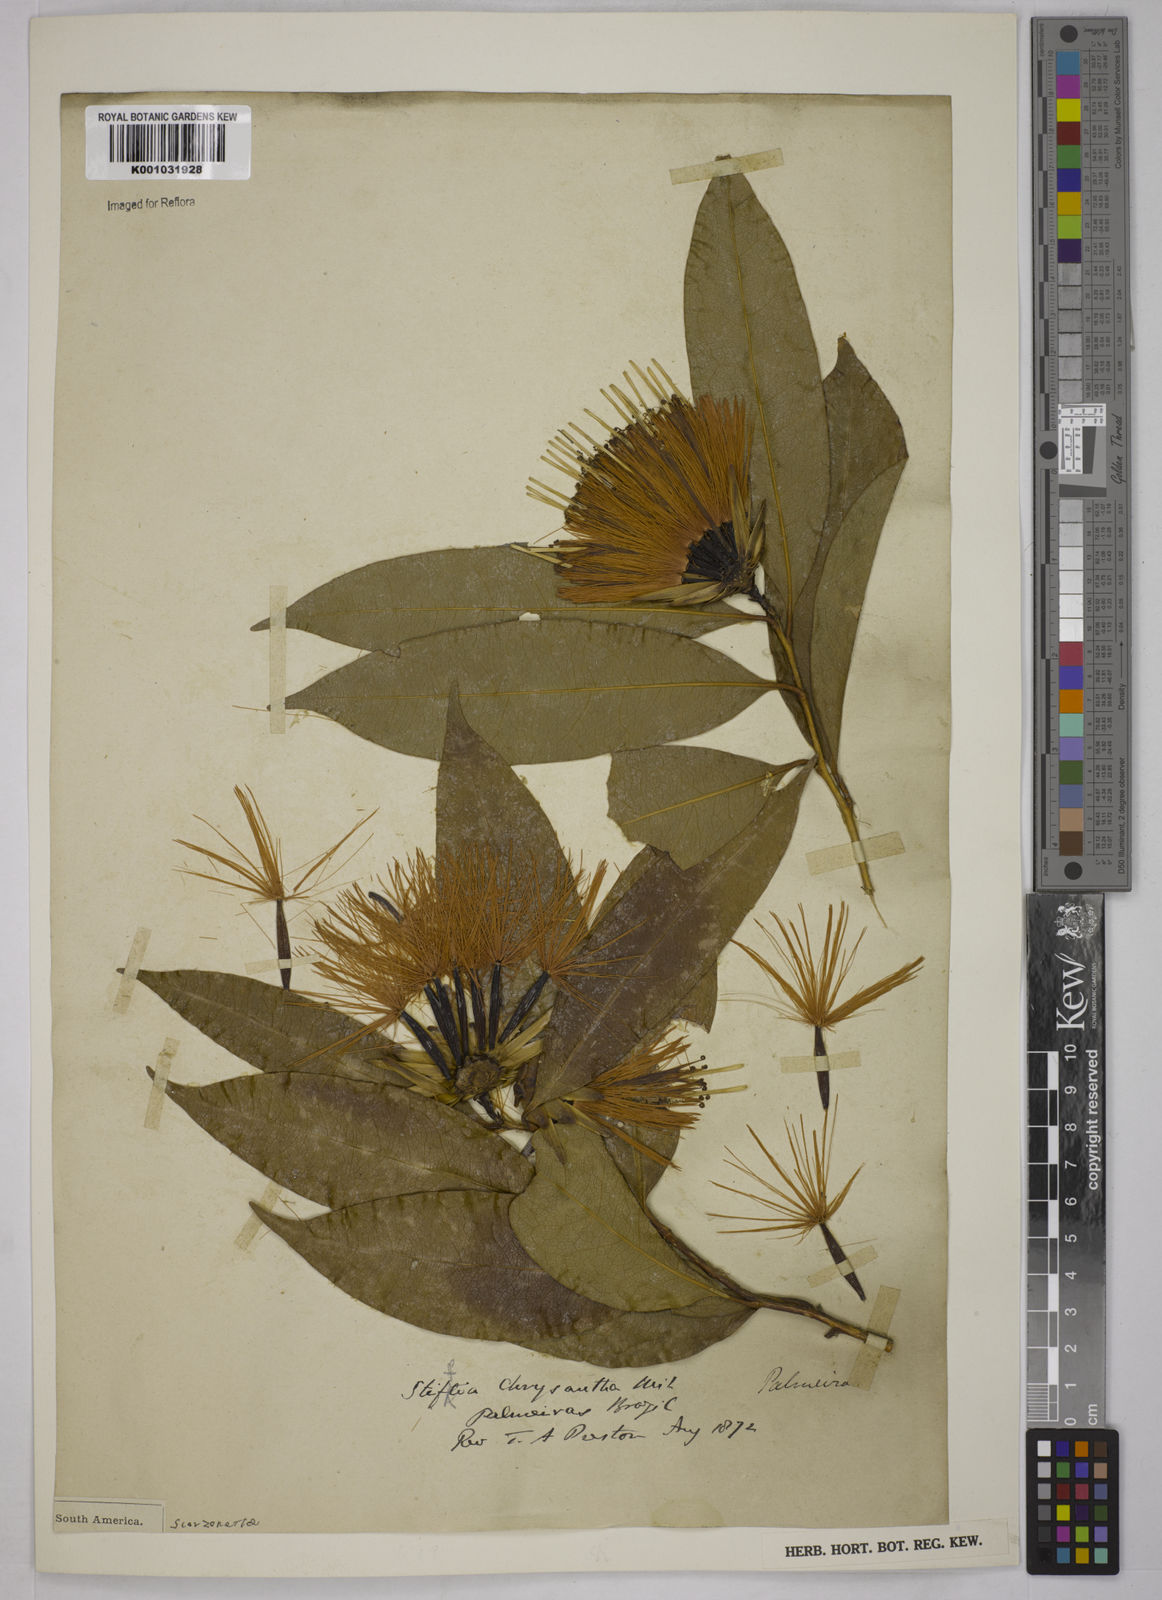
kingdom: Plantae
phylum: Tracheophyta
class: Magnoliopsida
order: Asterales
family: Asteraceae
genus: Stifftia
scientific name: Stifftia chrysantha
